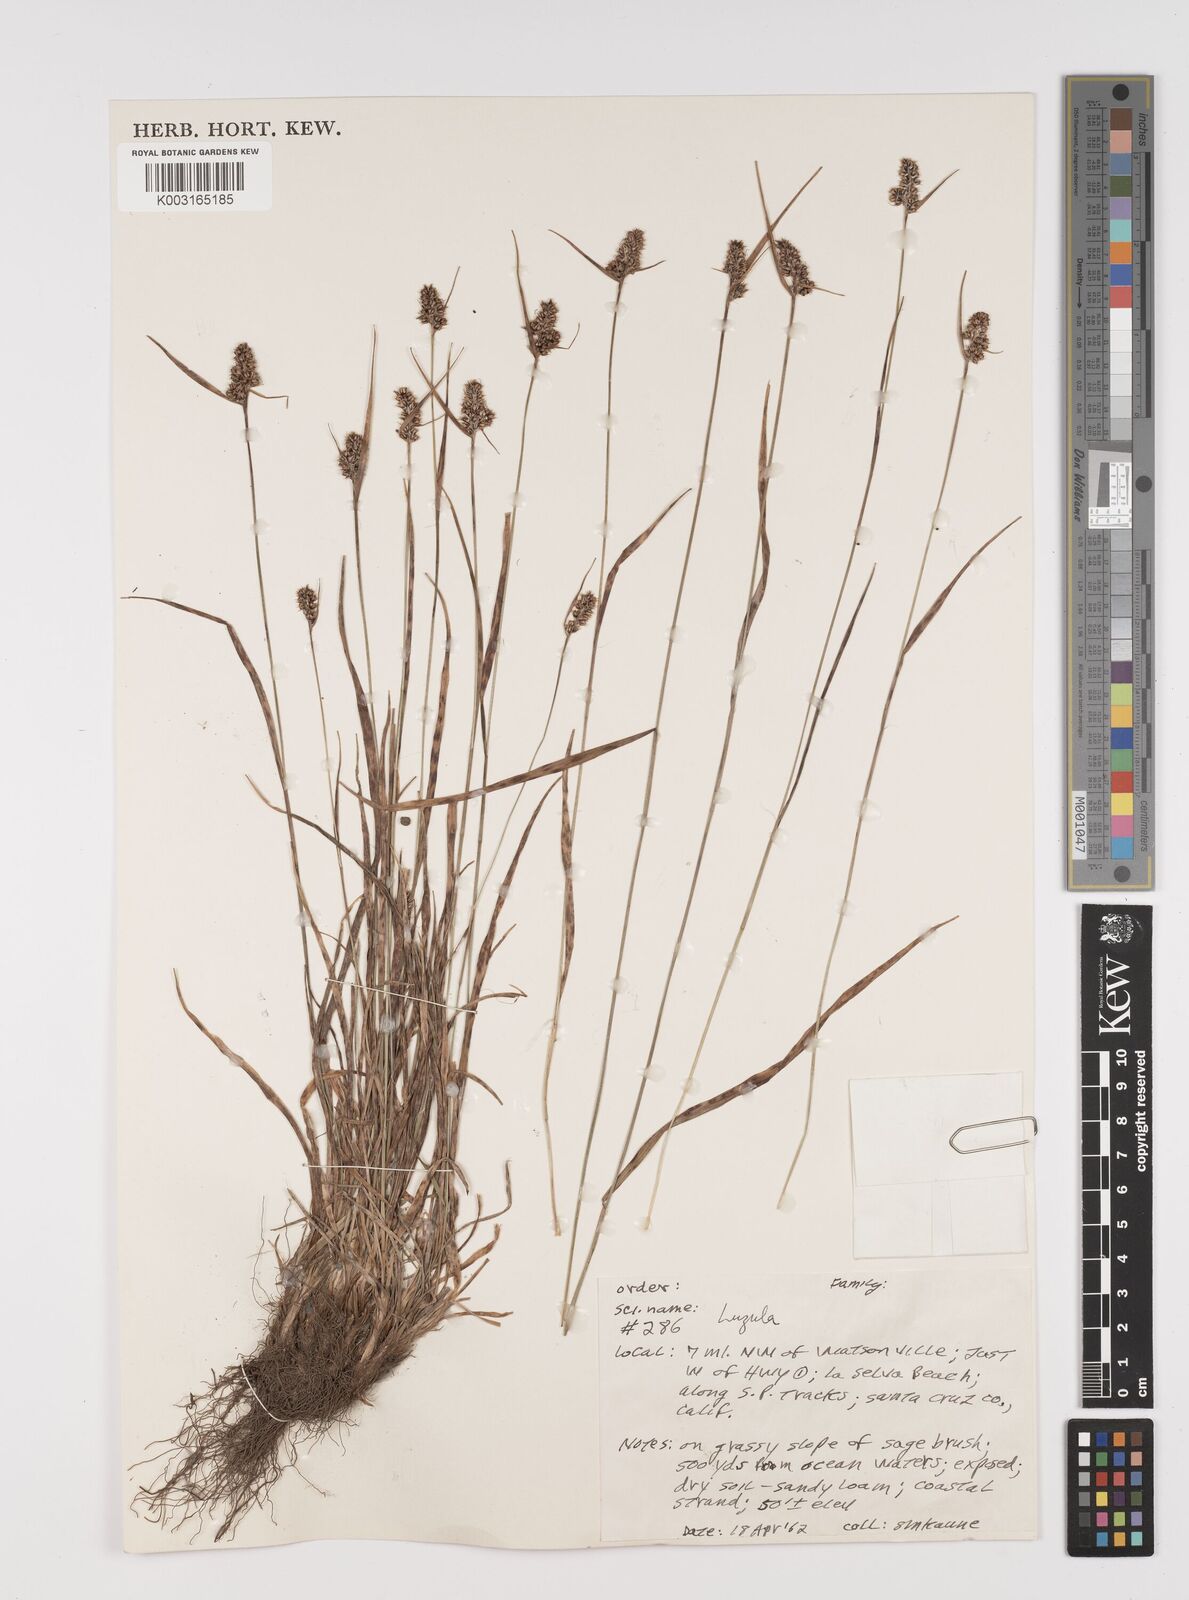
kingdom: Plantae
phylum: Tracheophyta
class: Liliopsida
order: Poales
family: Juncaceae
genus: Luzula
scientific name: Luzula
